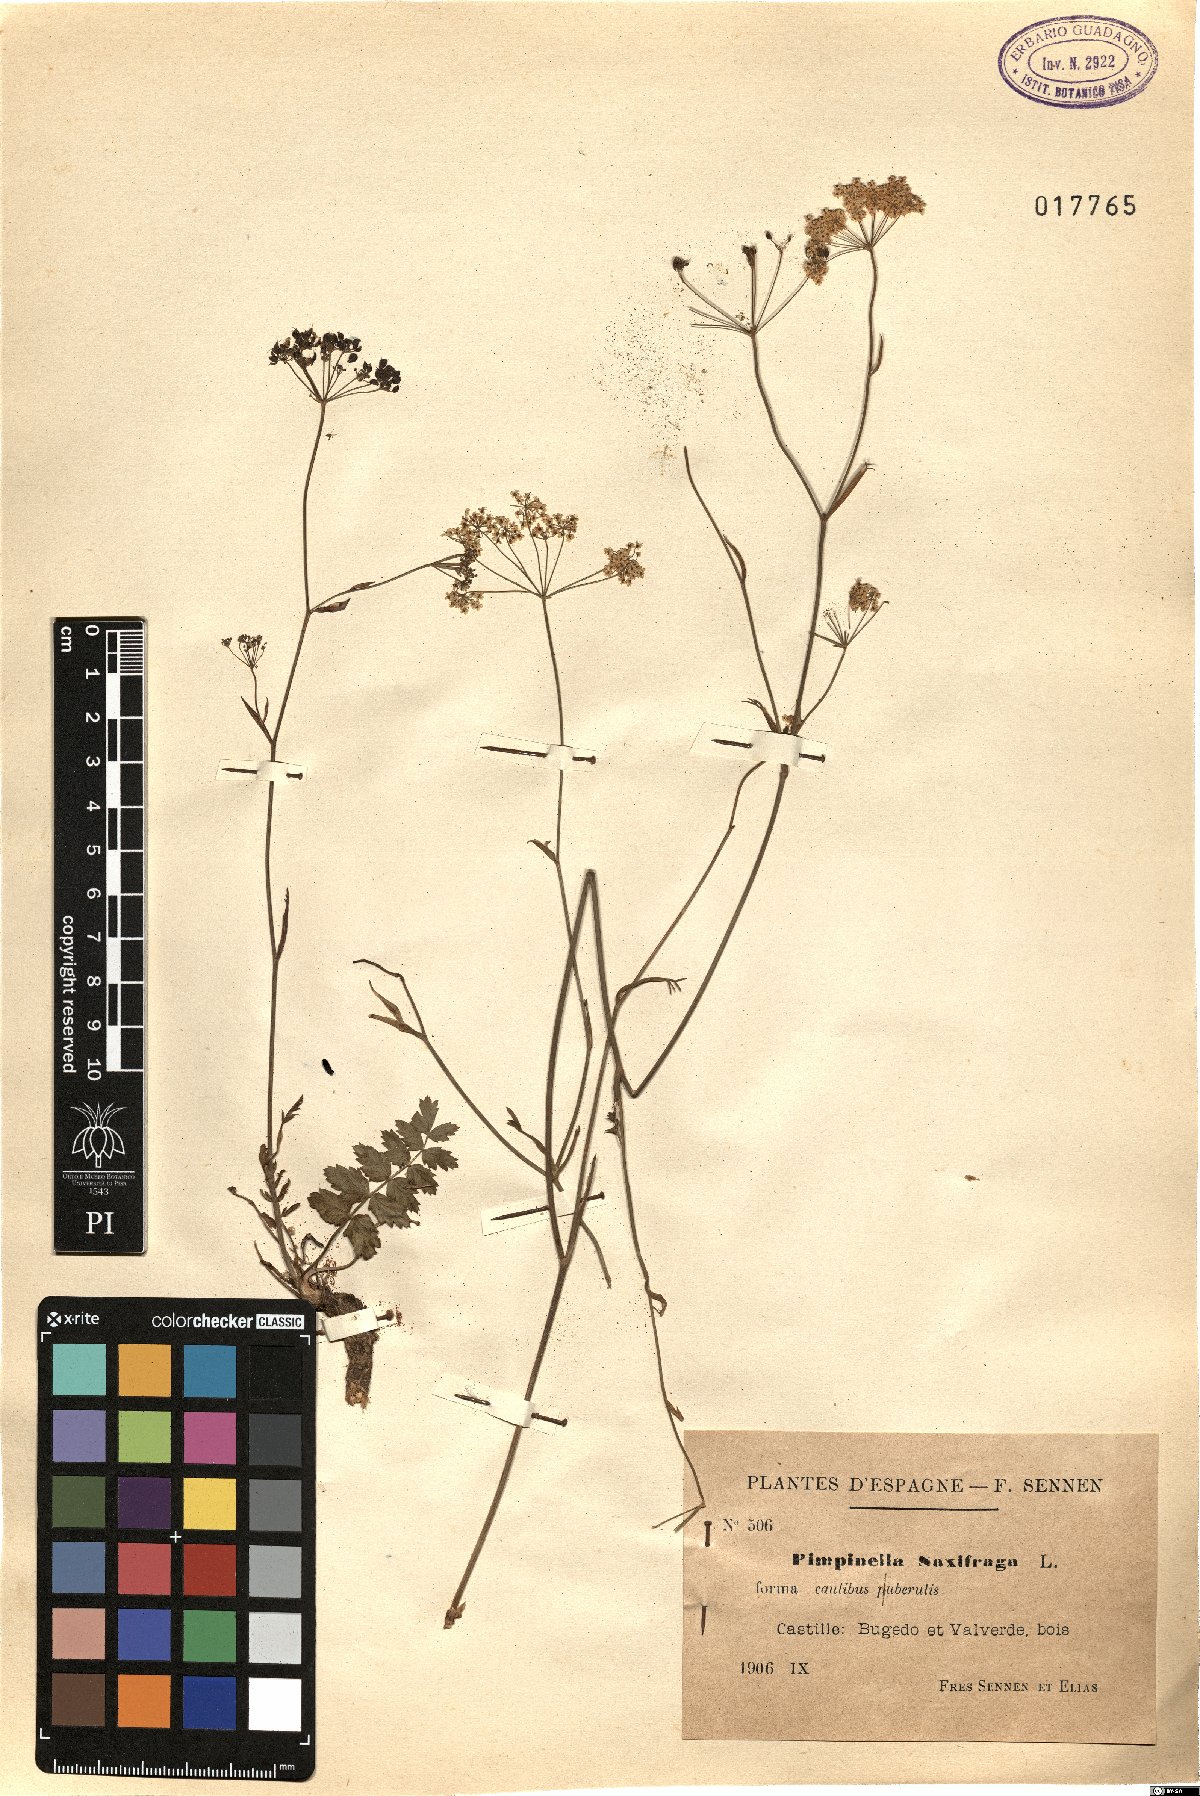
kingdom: Plantae
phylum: Tracheophyta
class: Magnoliopsida
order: Apiales
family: Apiaceae
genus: Pimpinella
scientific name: Pimpinella saxifraga
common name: Burnet-saxifrage
